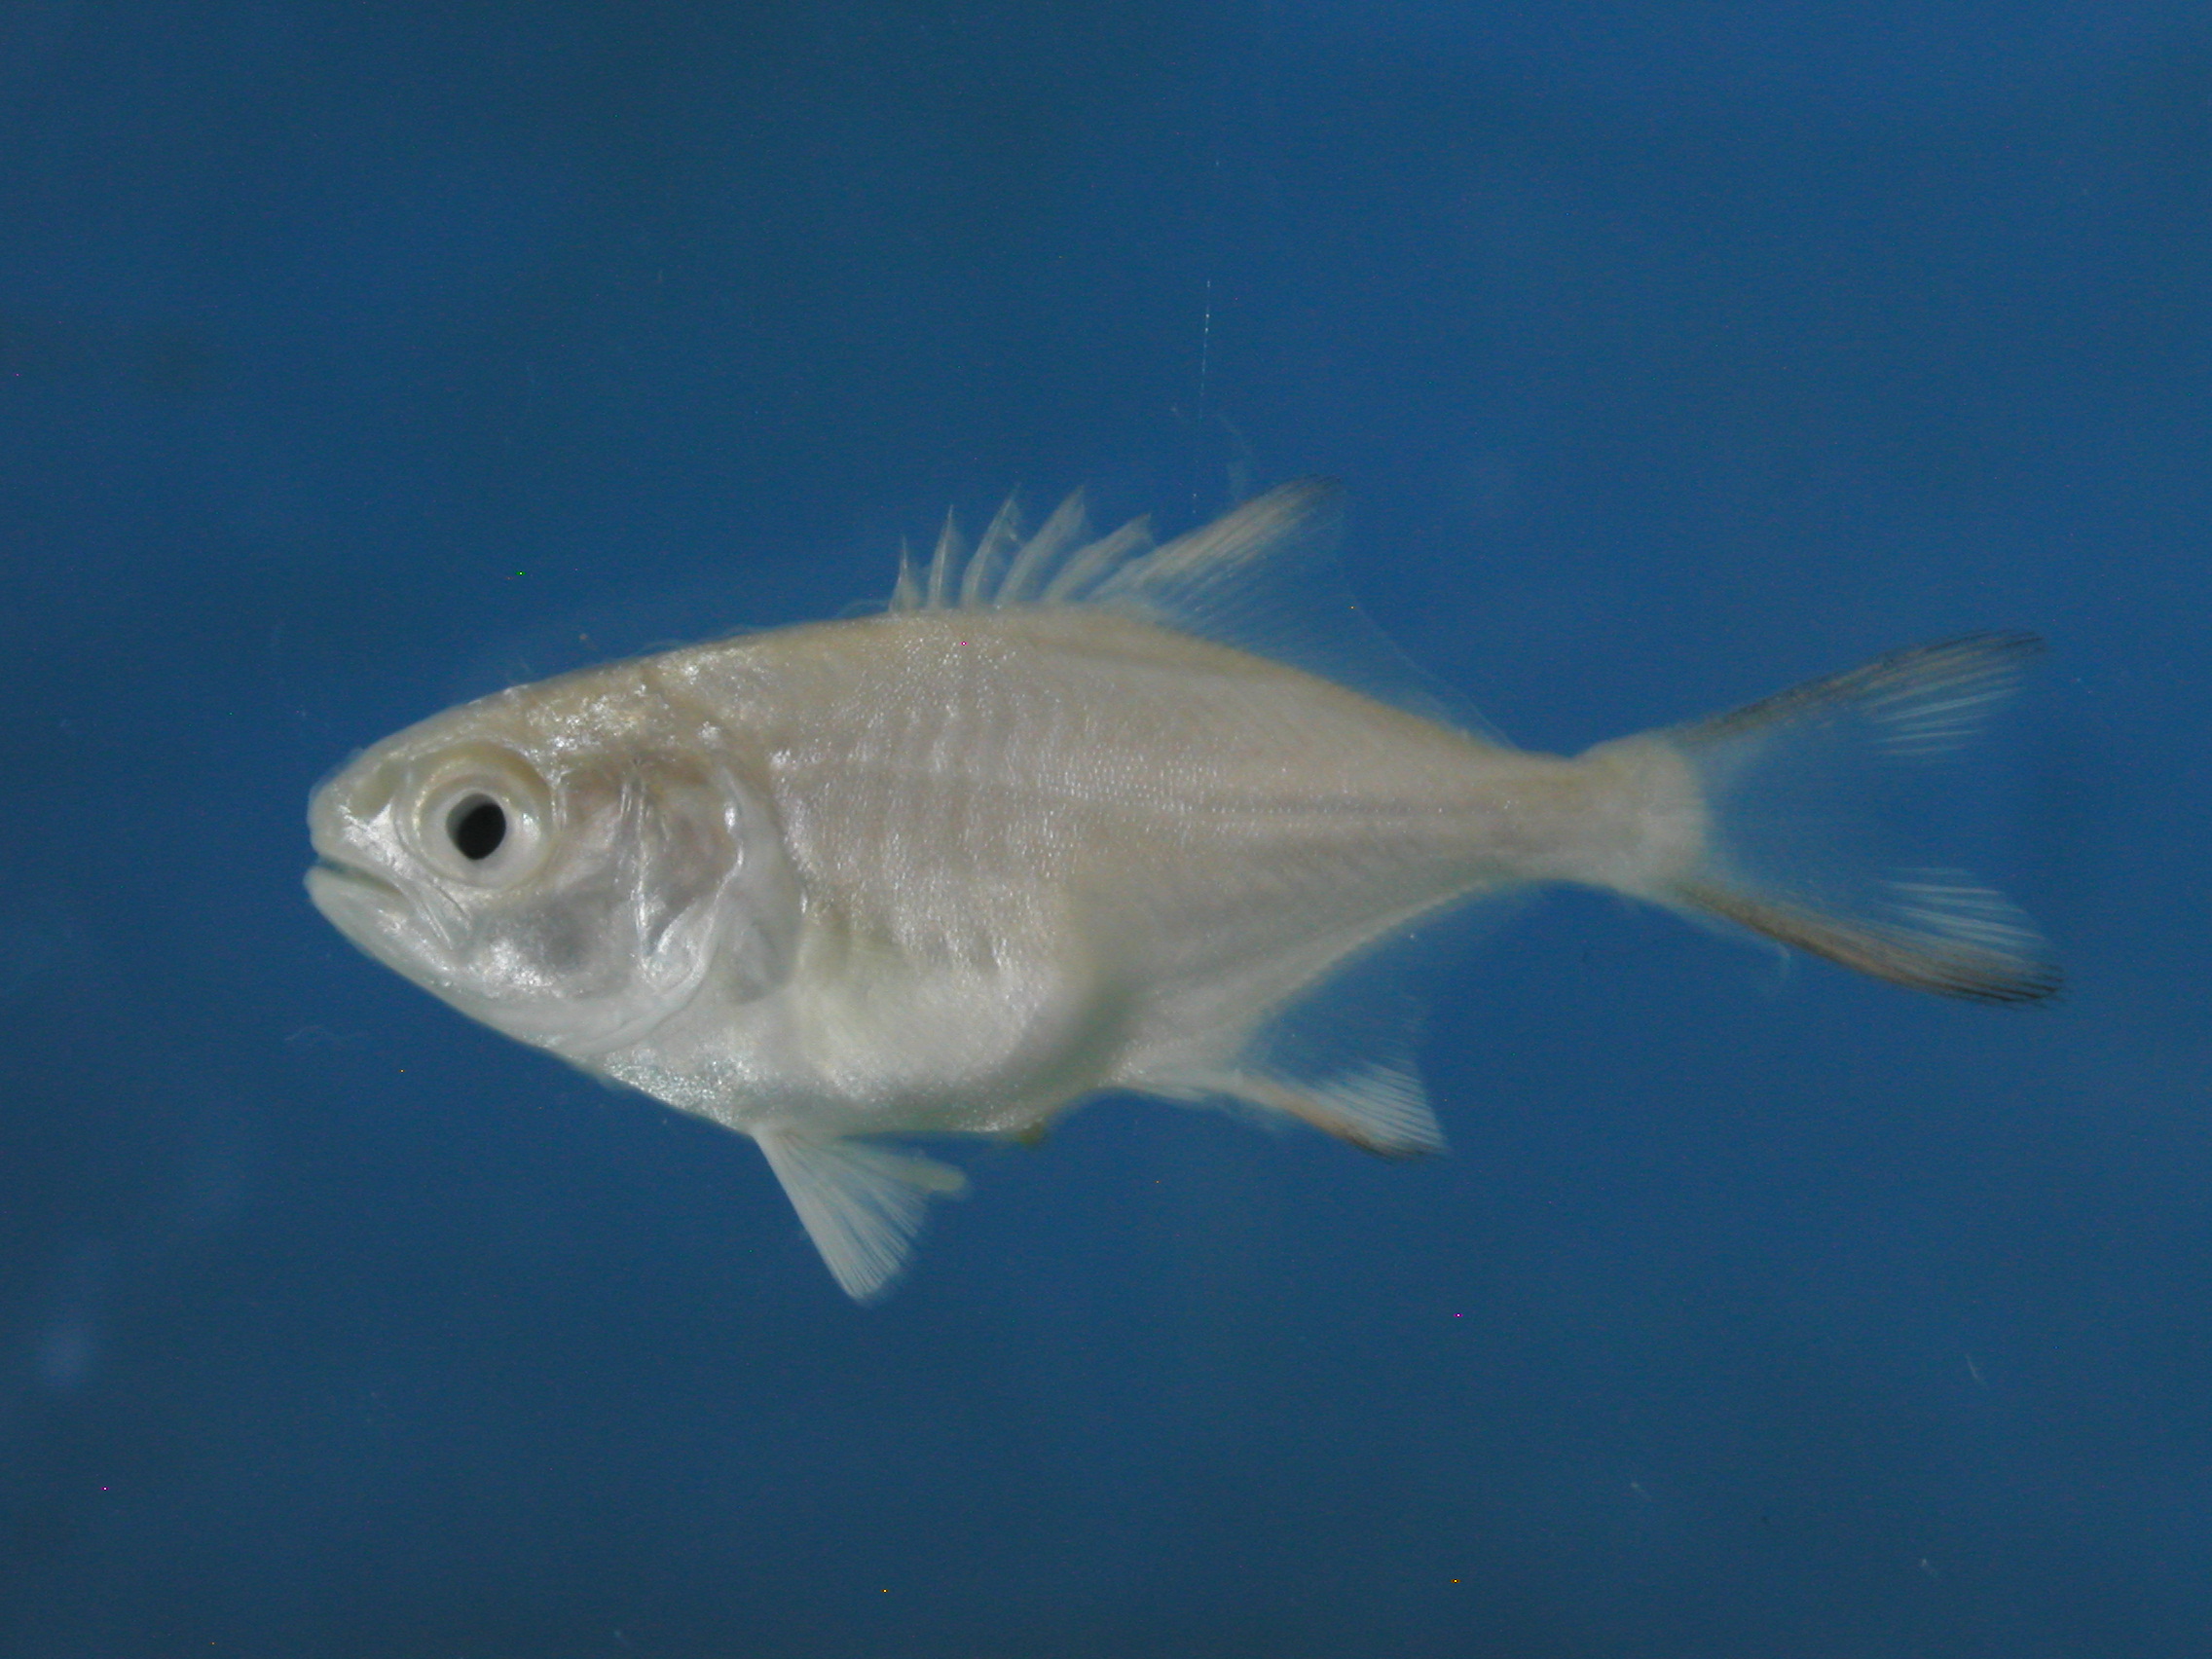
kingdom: Animalia
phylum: Chordata
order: Perciformes
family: Carangidae
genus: Trachinotus
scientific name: Trachinotus blochii
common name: Snubnose pompano
